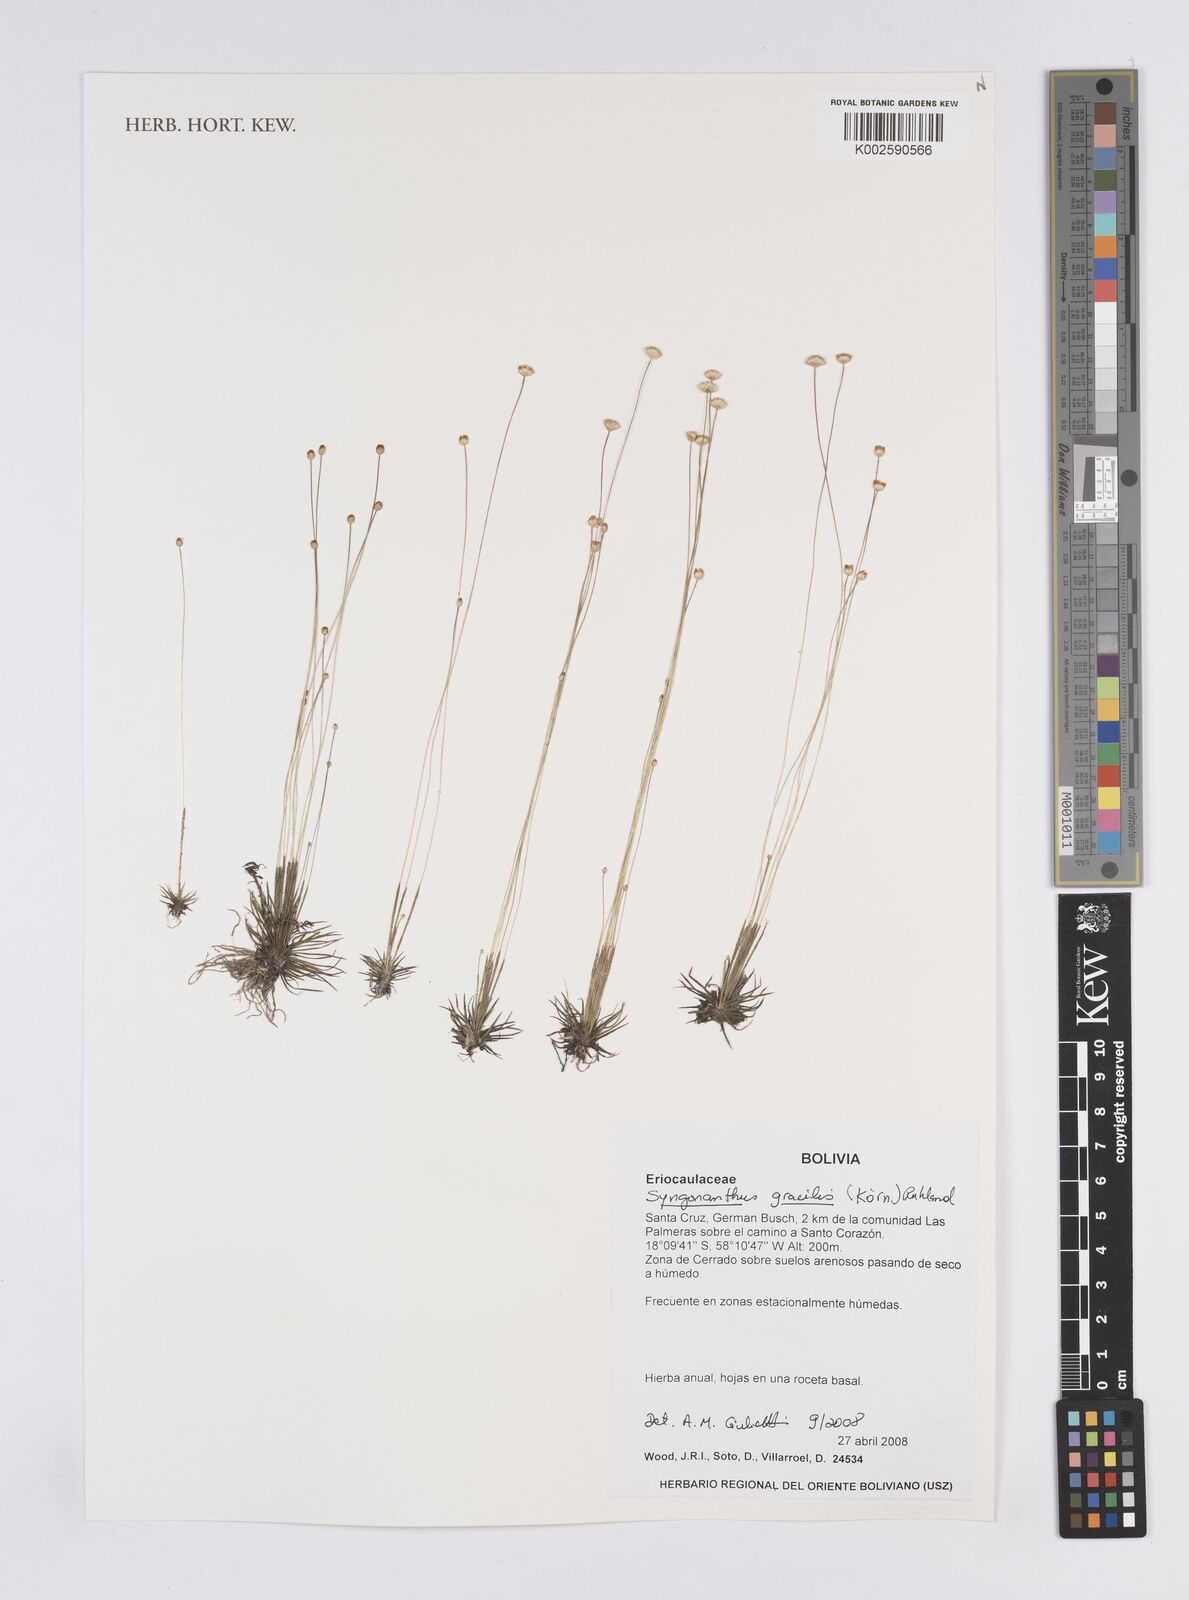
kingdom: Plantae
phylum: Tracheophyta
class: Liliopsida
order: Poales
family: Eriocaulaceae
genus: Syngonanthus
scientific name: Syngonanthus
